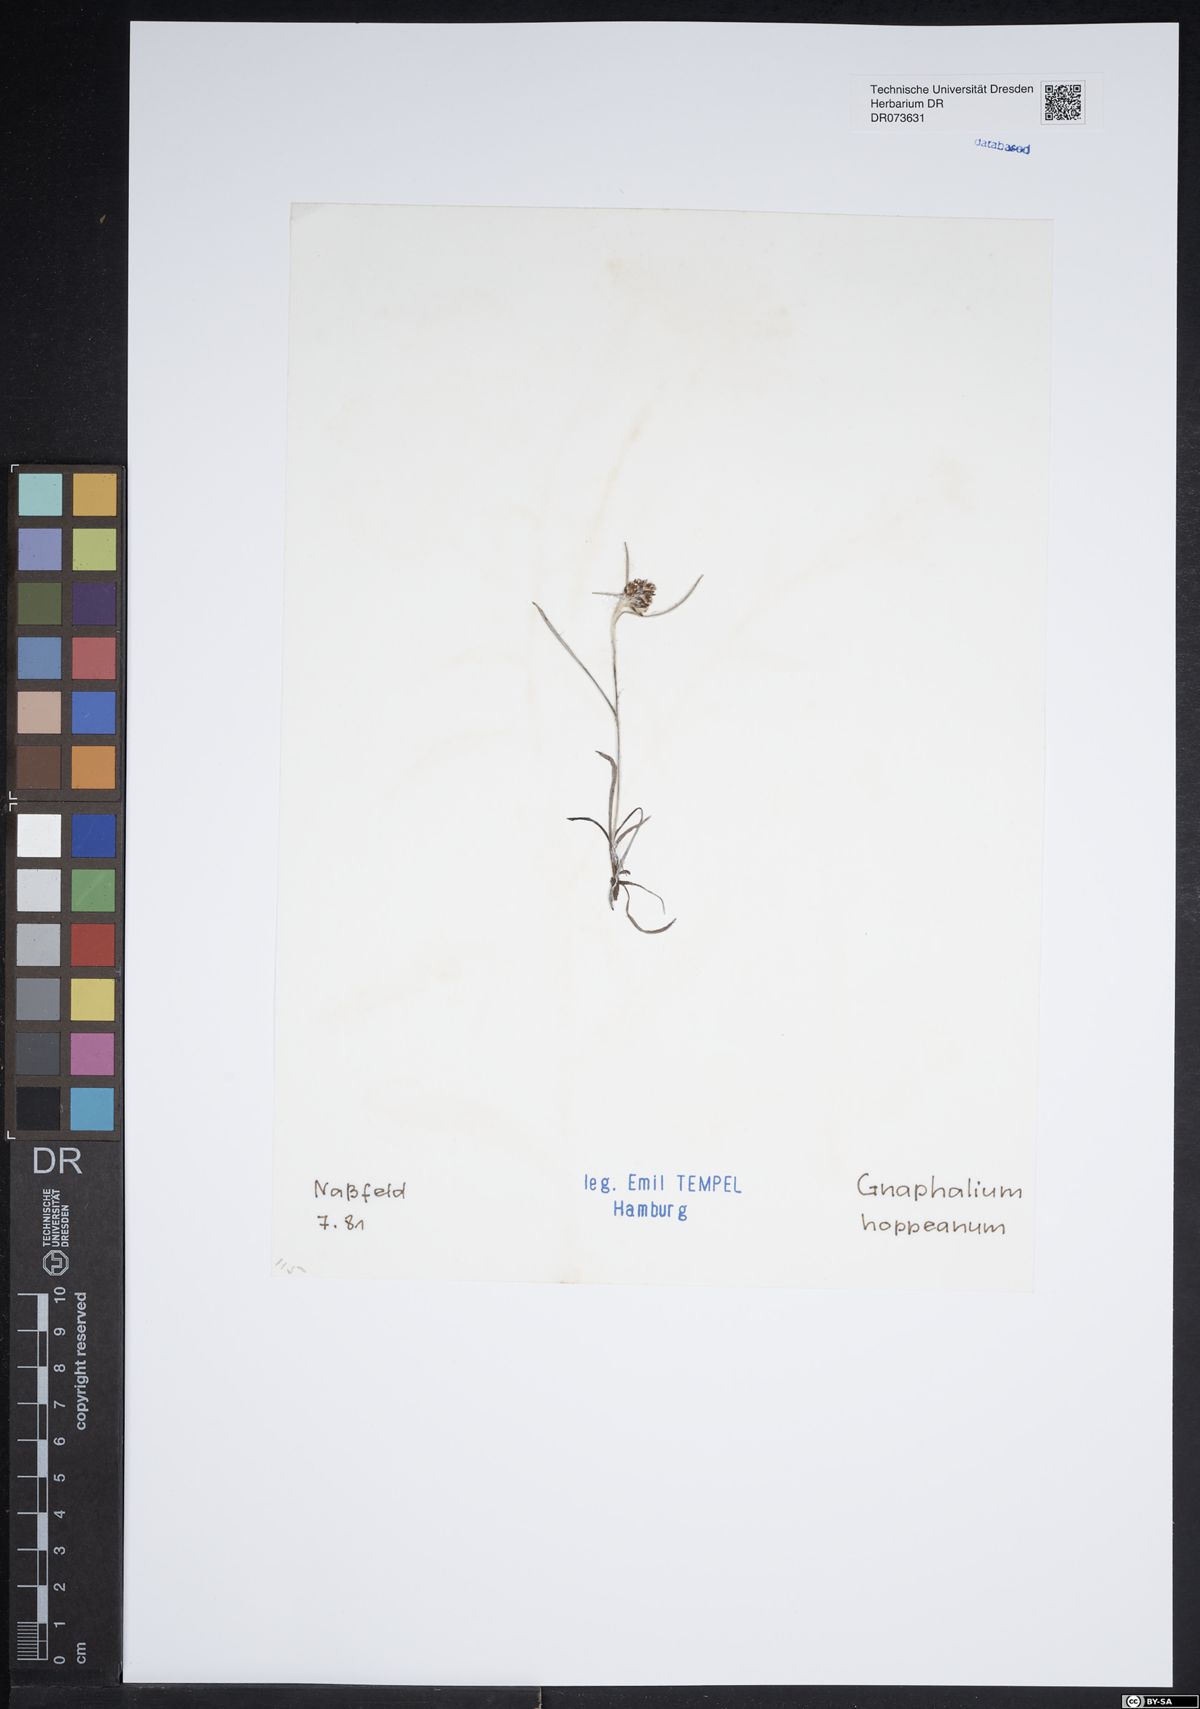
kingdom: Plantae
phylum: Tracheophyta
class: Magnoliopsida
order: Asterales
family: Asteraceae
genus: Omalotheca
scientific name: Omalotheca hoppeana
